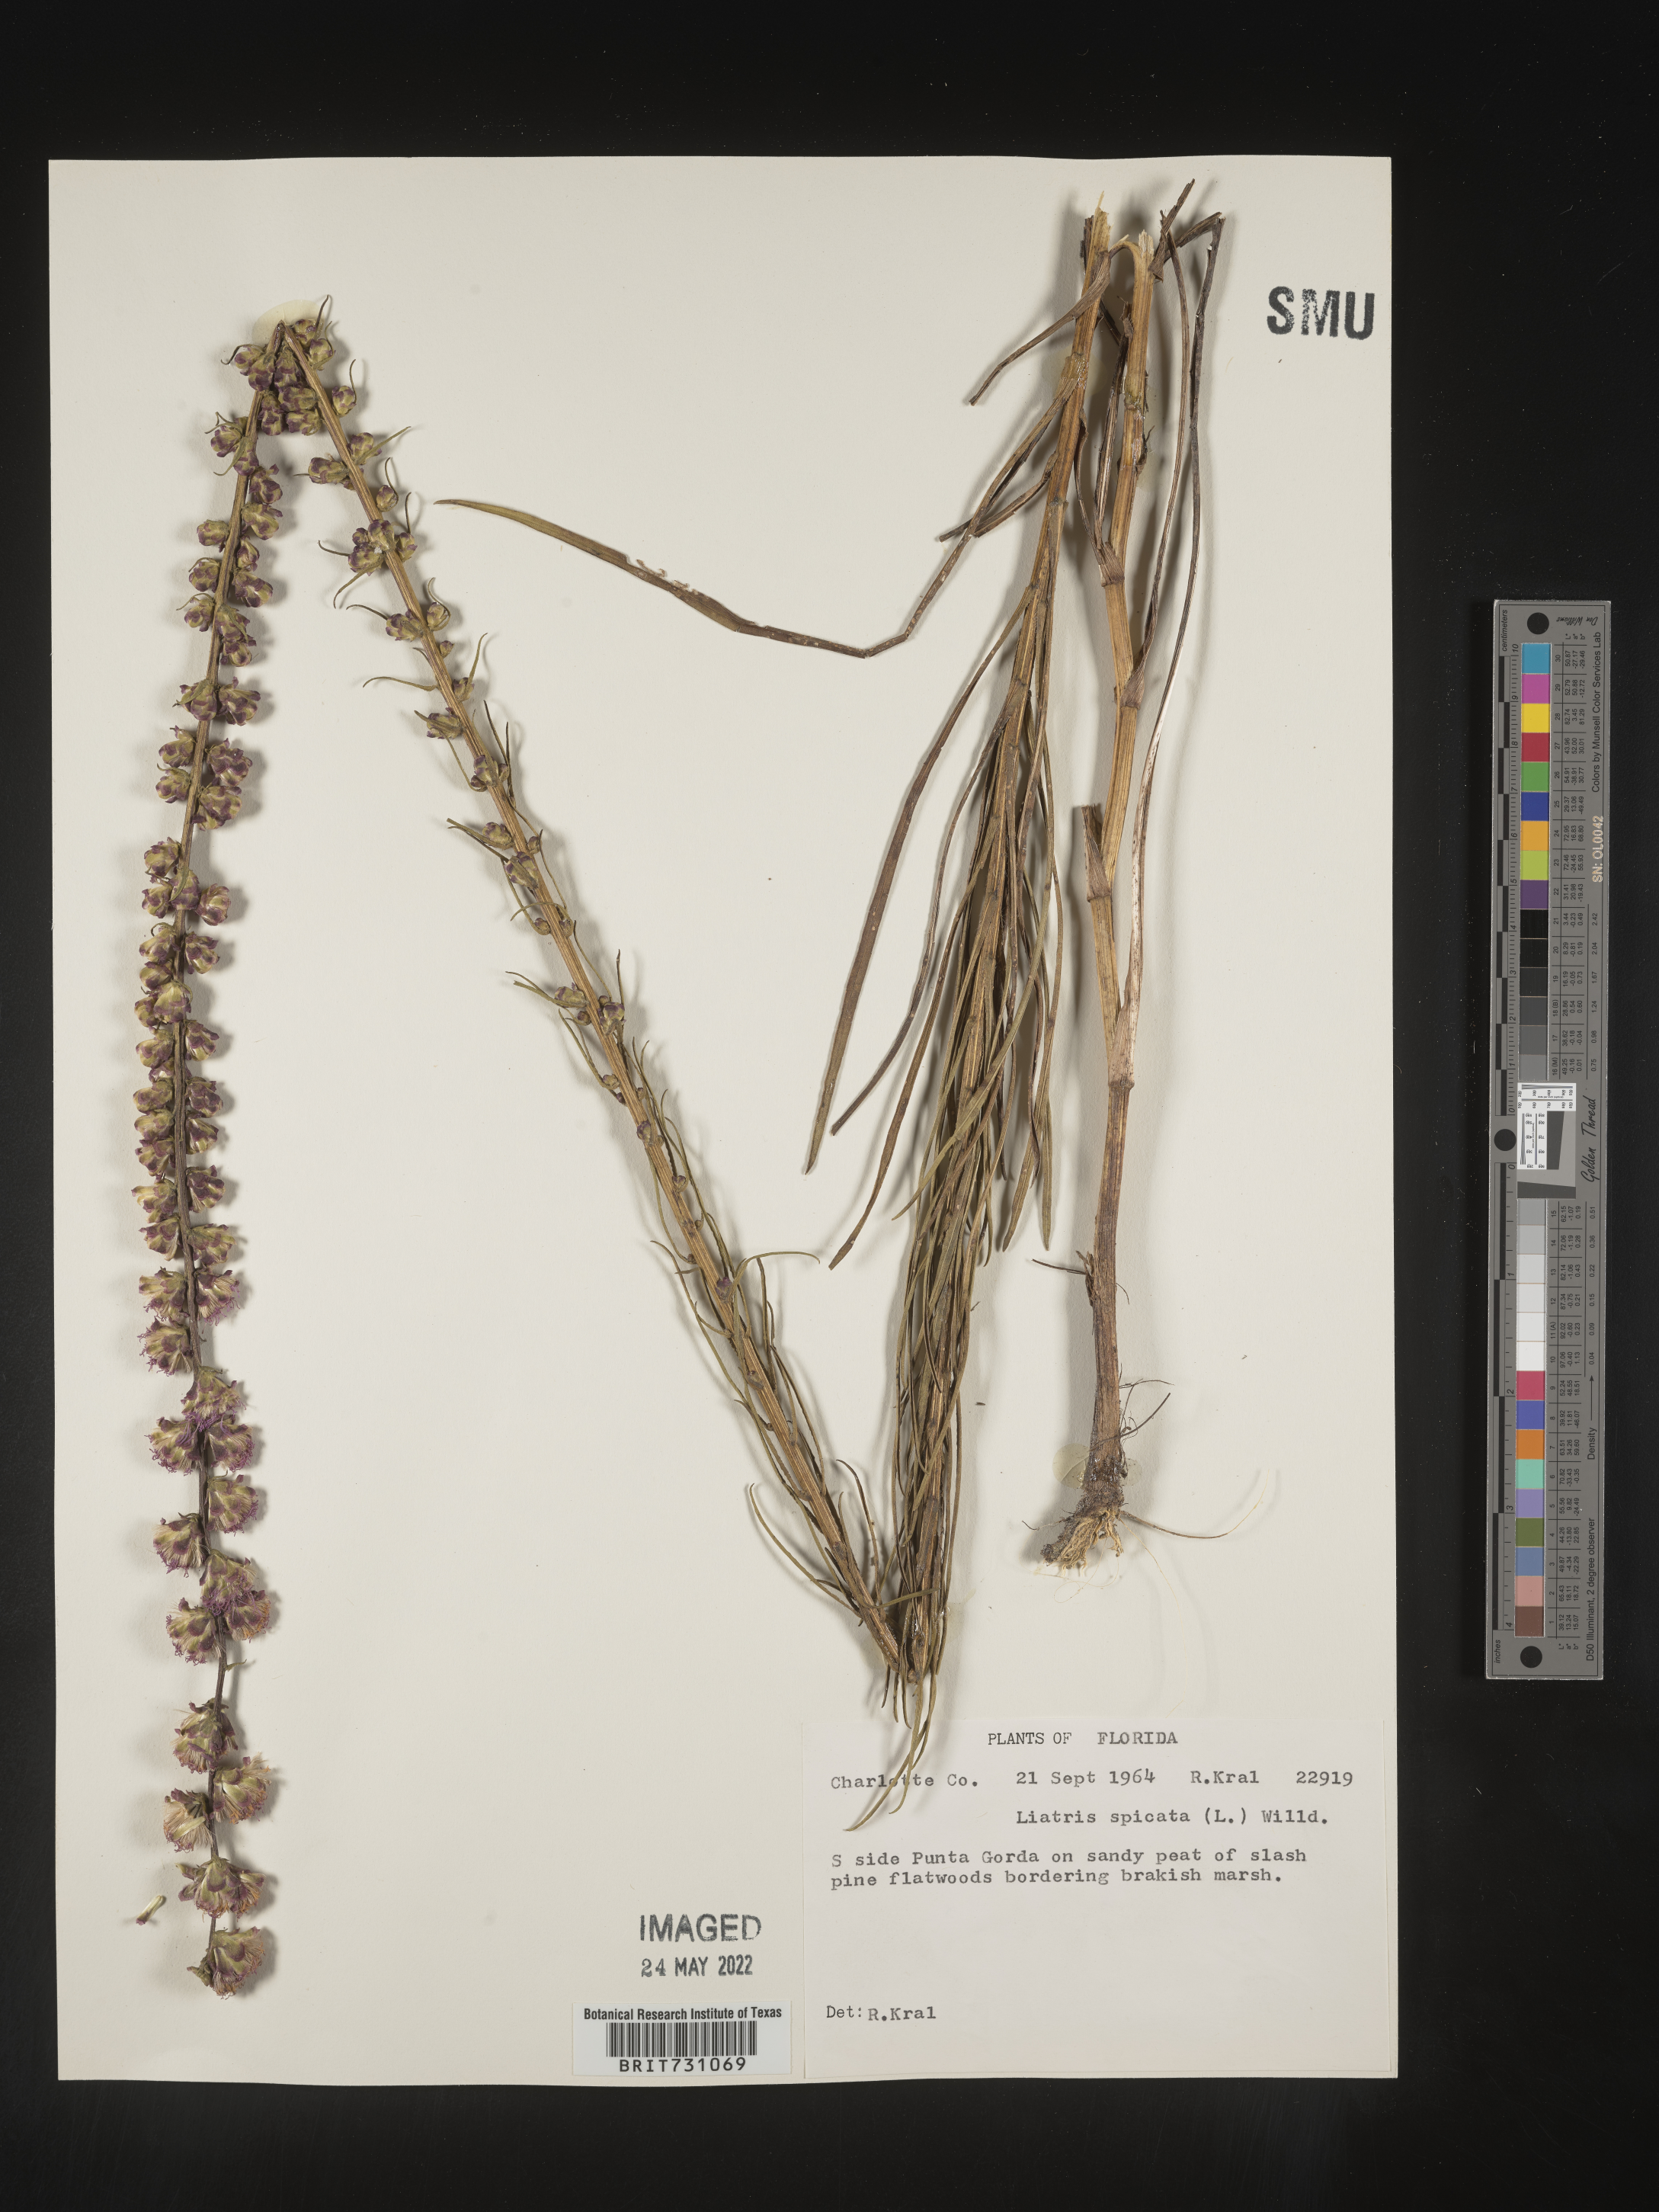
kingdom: Plantae
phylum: Tracheophyta
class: Magnoliopsida
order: Asterales
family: Asteraceae
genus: Liatris
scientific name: Liatris spicata
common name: Florist gayfeather
